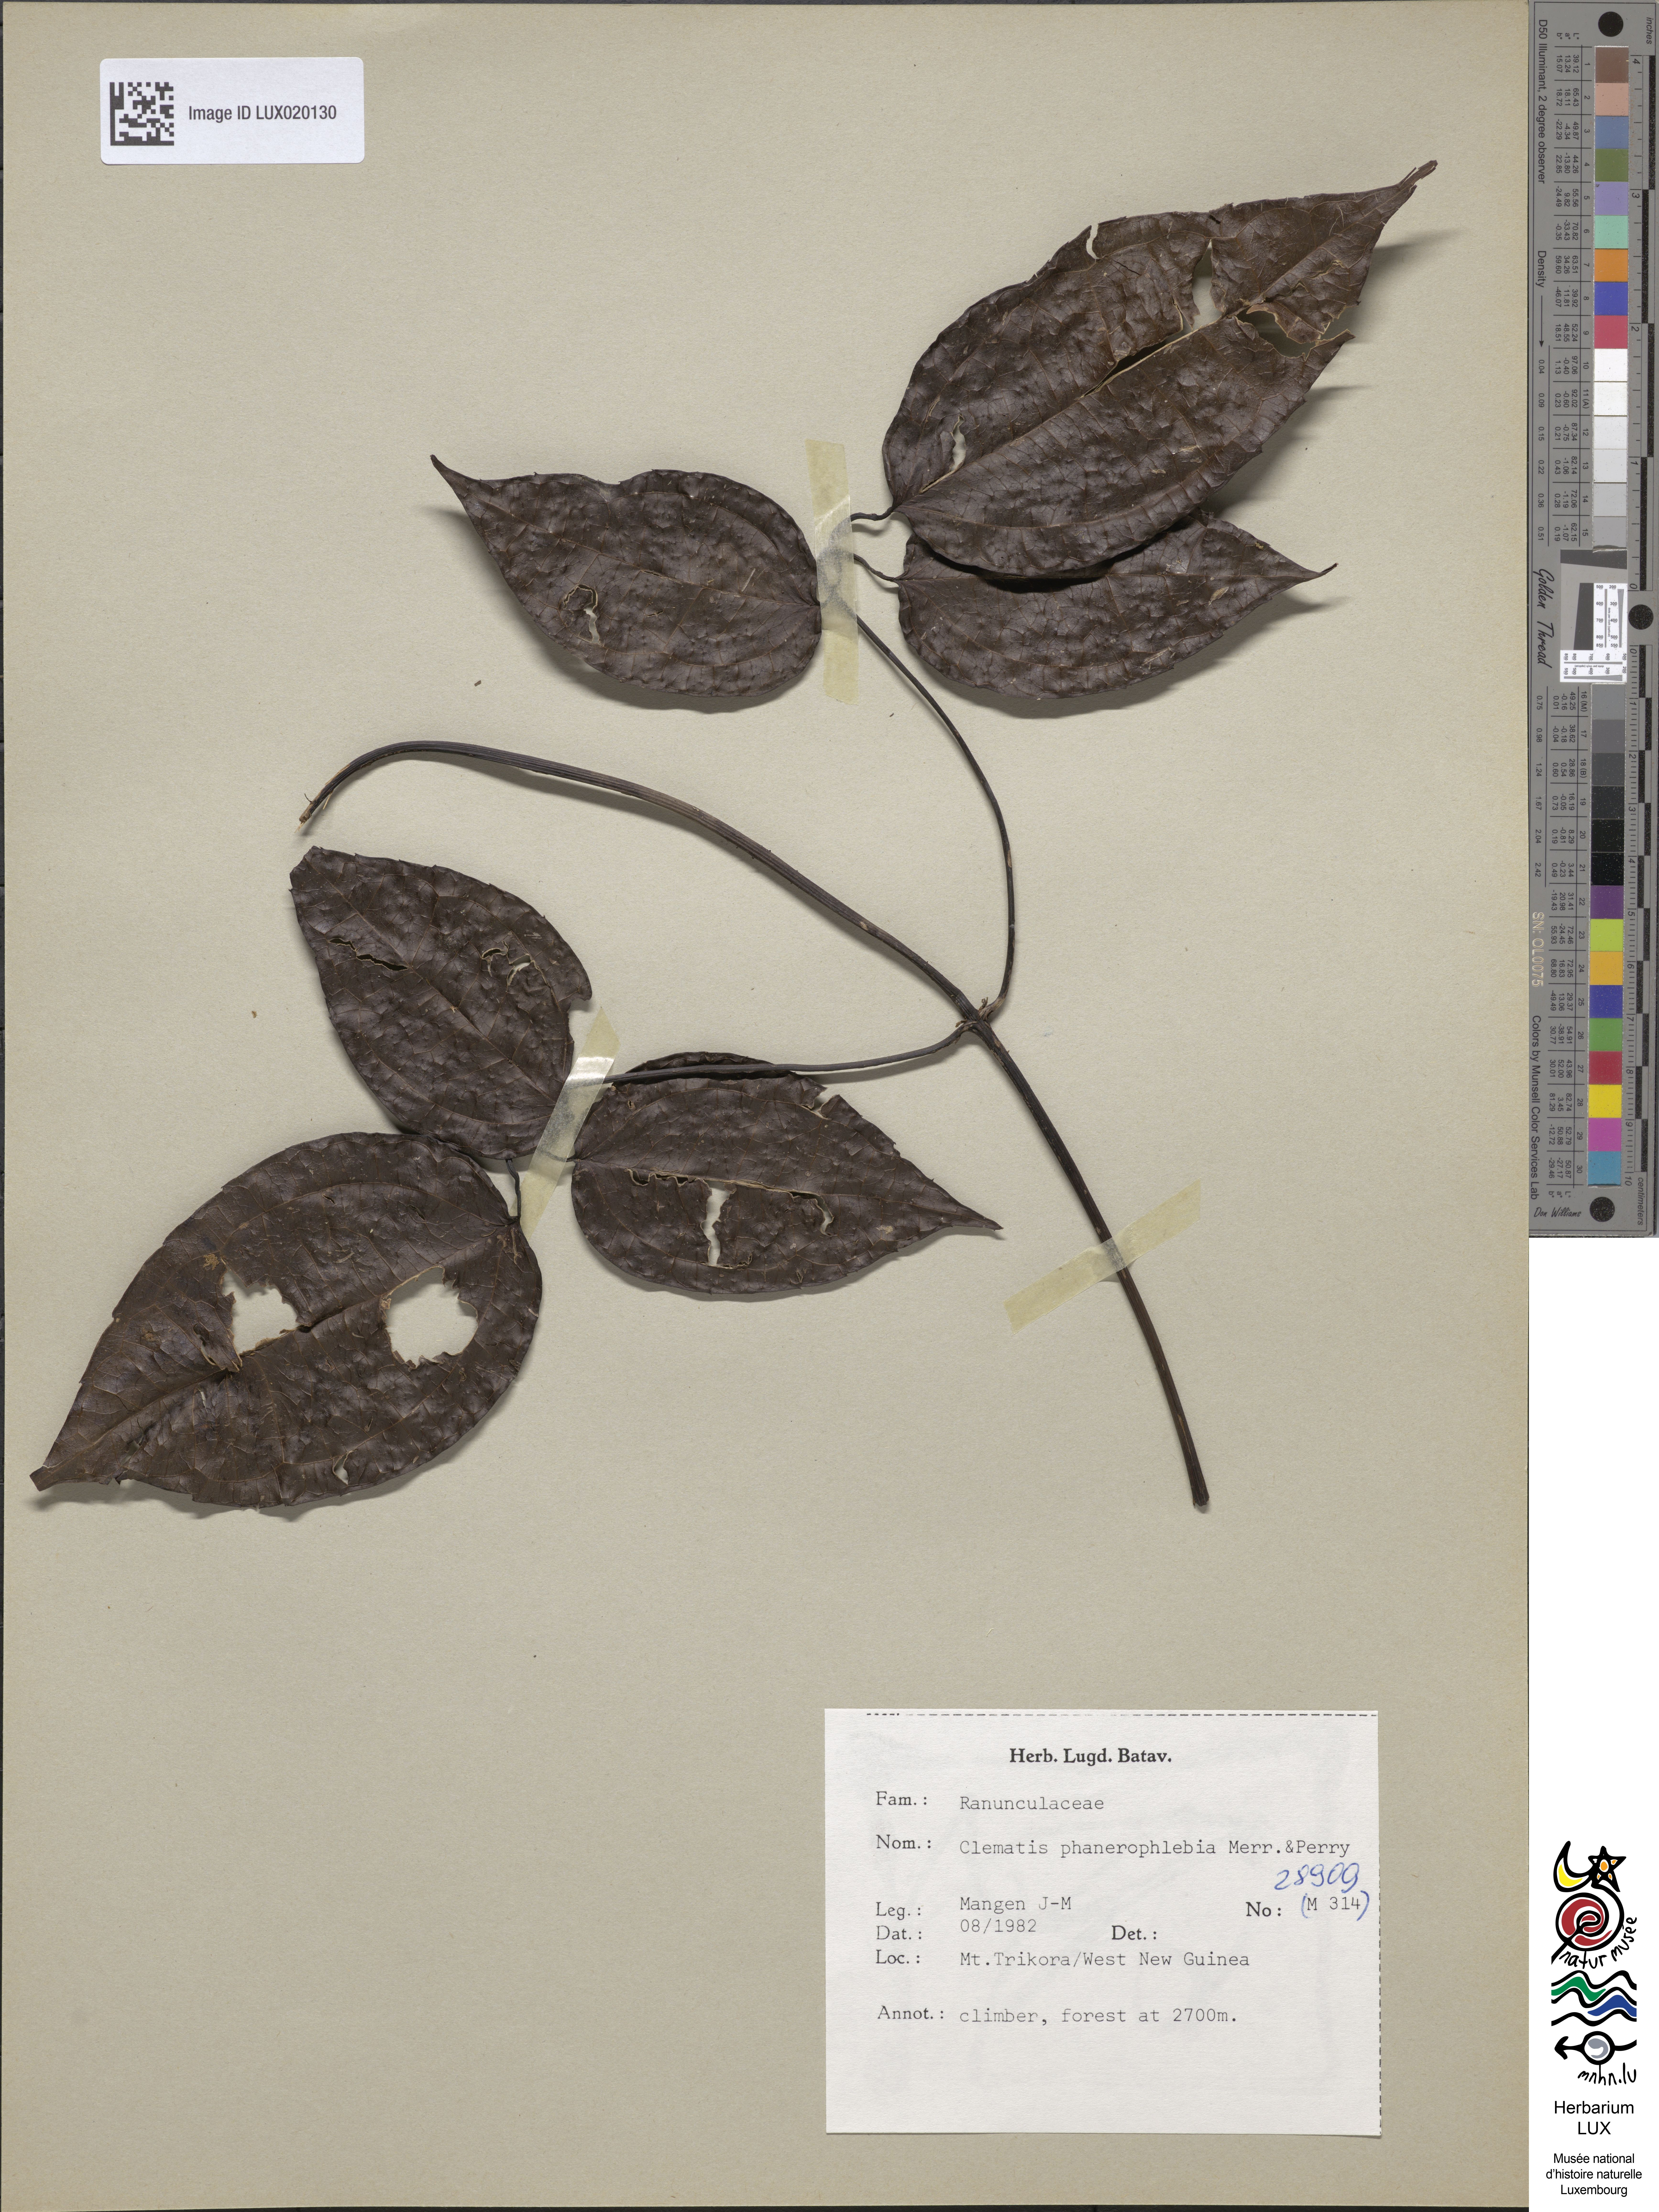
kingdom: Plantae
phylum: Tracheophyta
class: Magnoliopsida
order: Ranunculales
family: Ranunculaceae
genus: Clematis
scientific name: Clematis phanerophlebia
